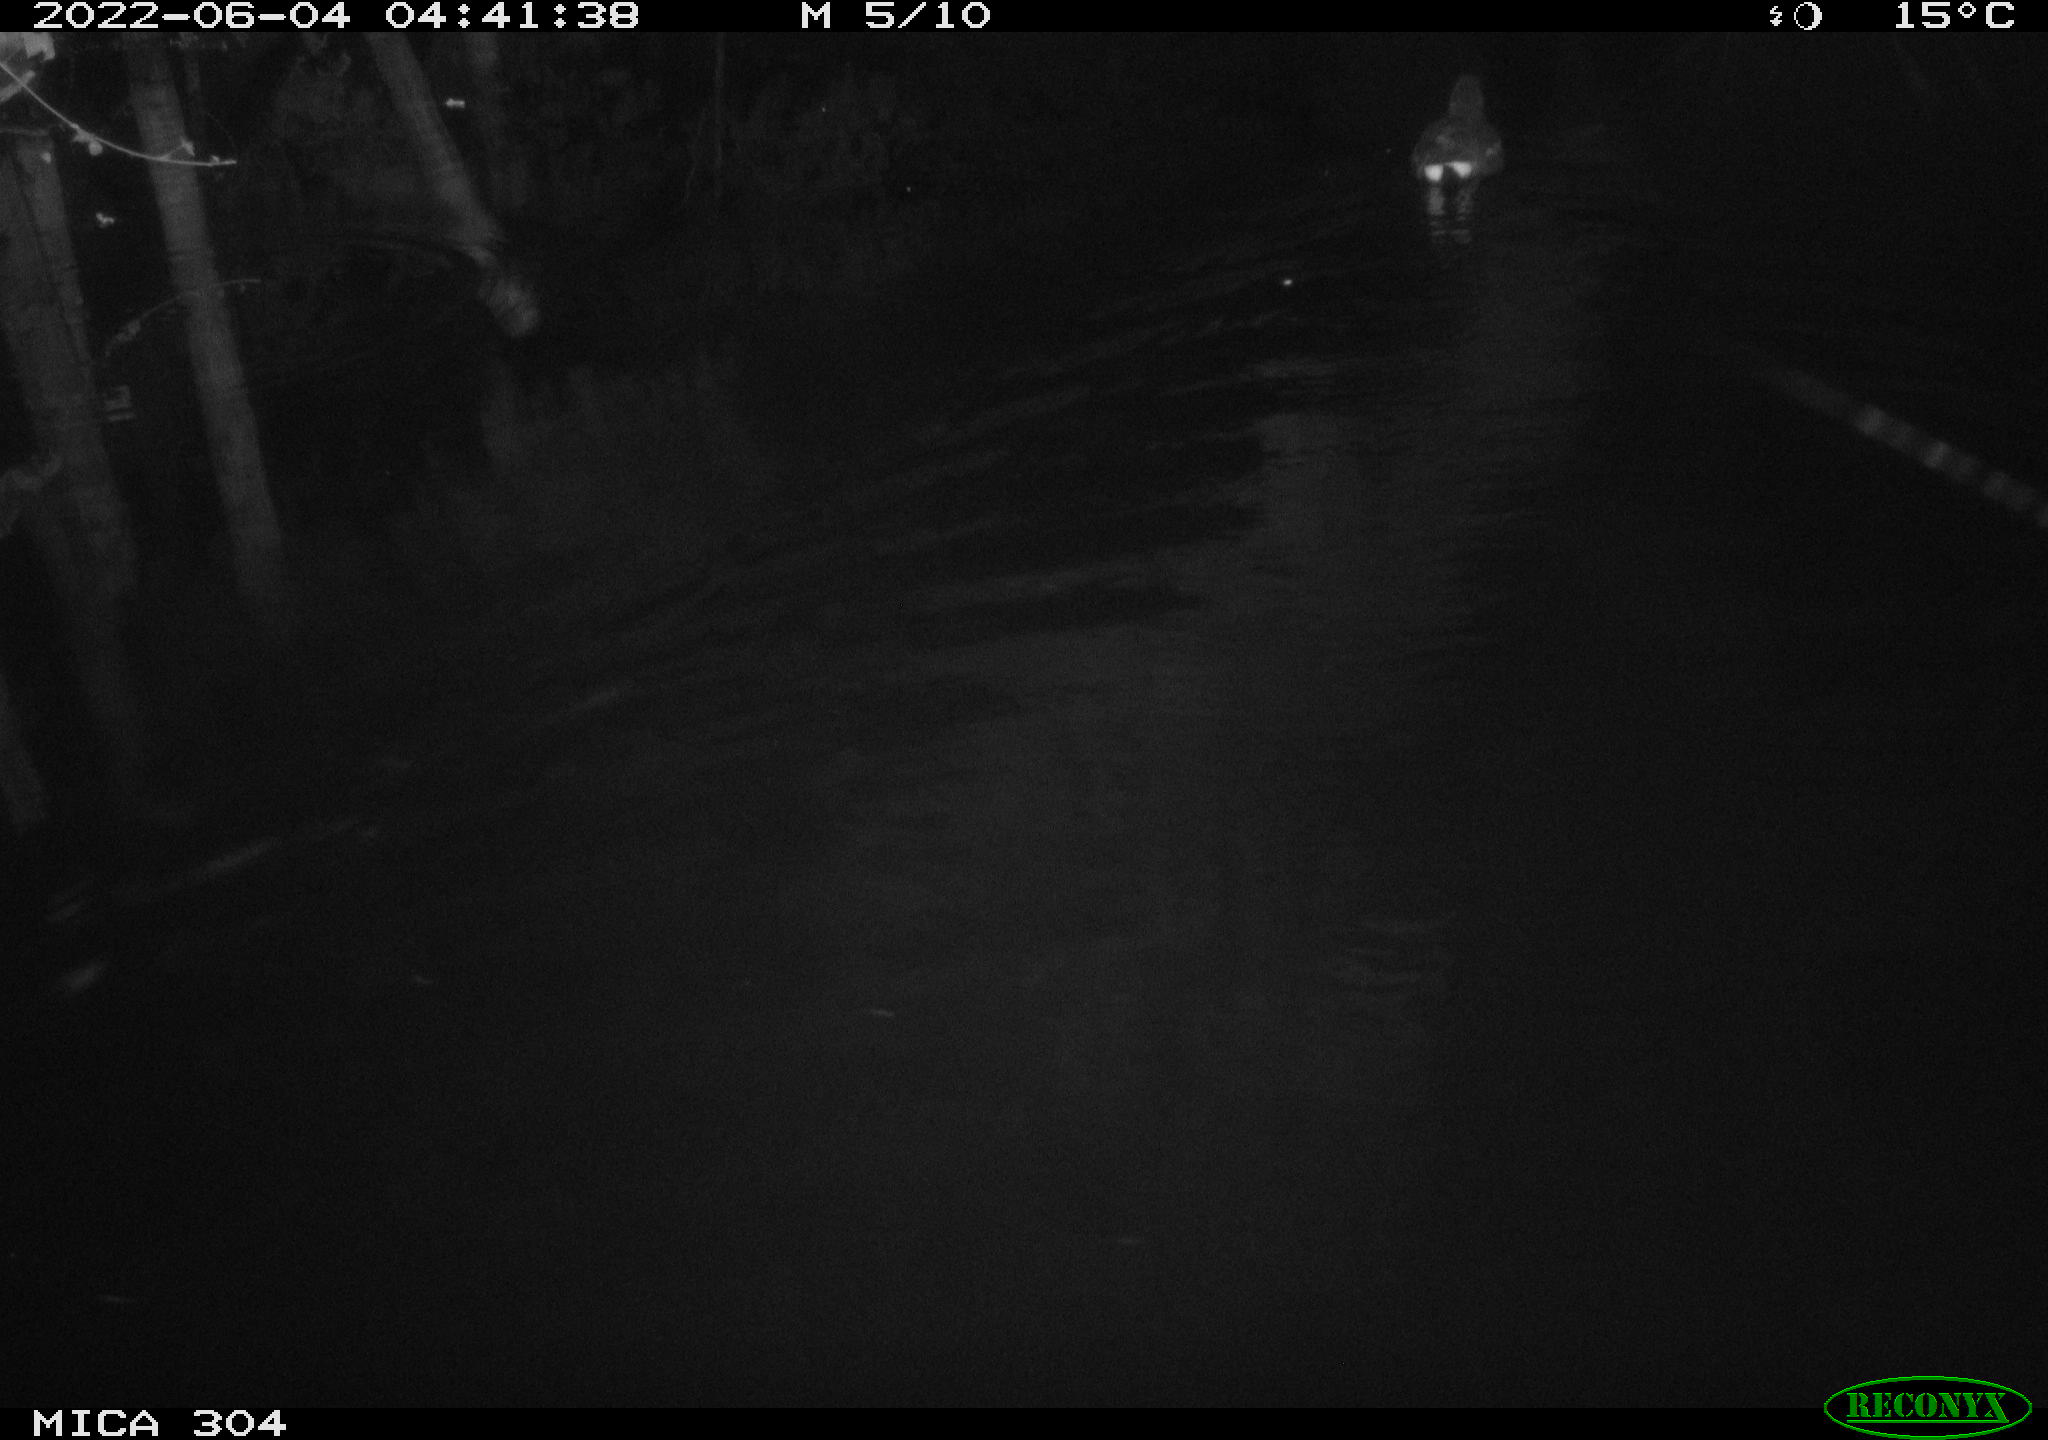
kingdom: Animalia
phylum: Chordata
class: Aves
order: Gruiformes
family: Rallidae
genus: Gallinula
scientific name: Gallinula chloropus
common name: Common moorhen
